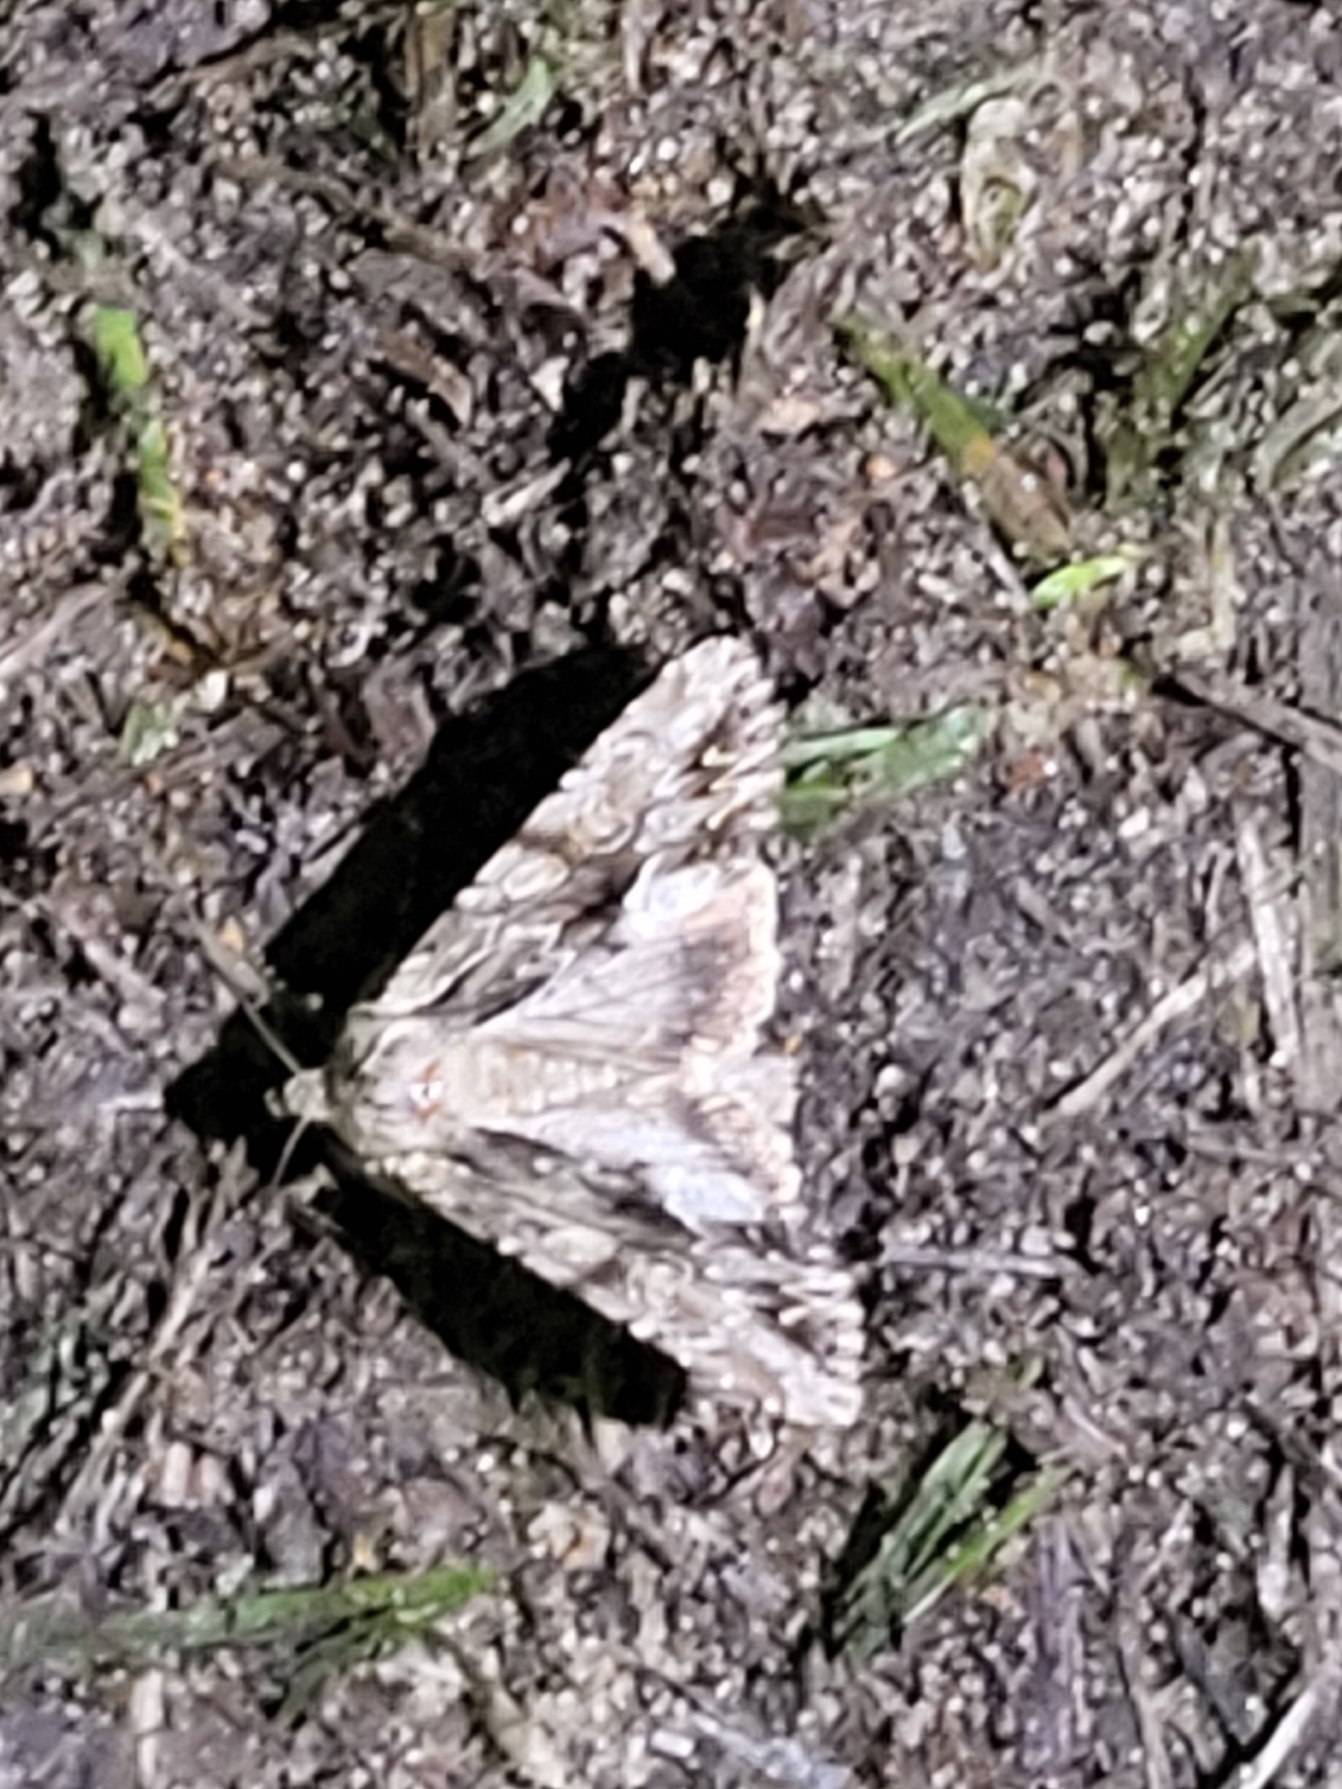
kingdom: Animalia
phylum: Arthropoda
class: Insecta
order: Lepidoptera
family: Noctuidae
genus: Apamea
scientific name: Apamea monoglypha
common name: Jordugle
